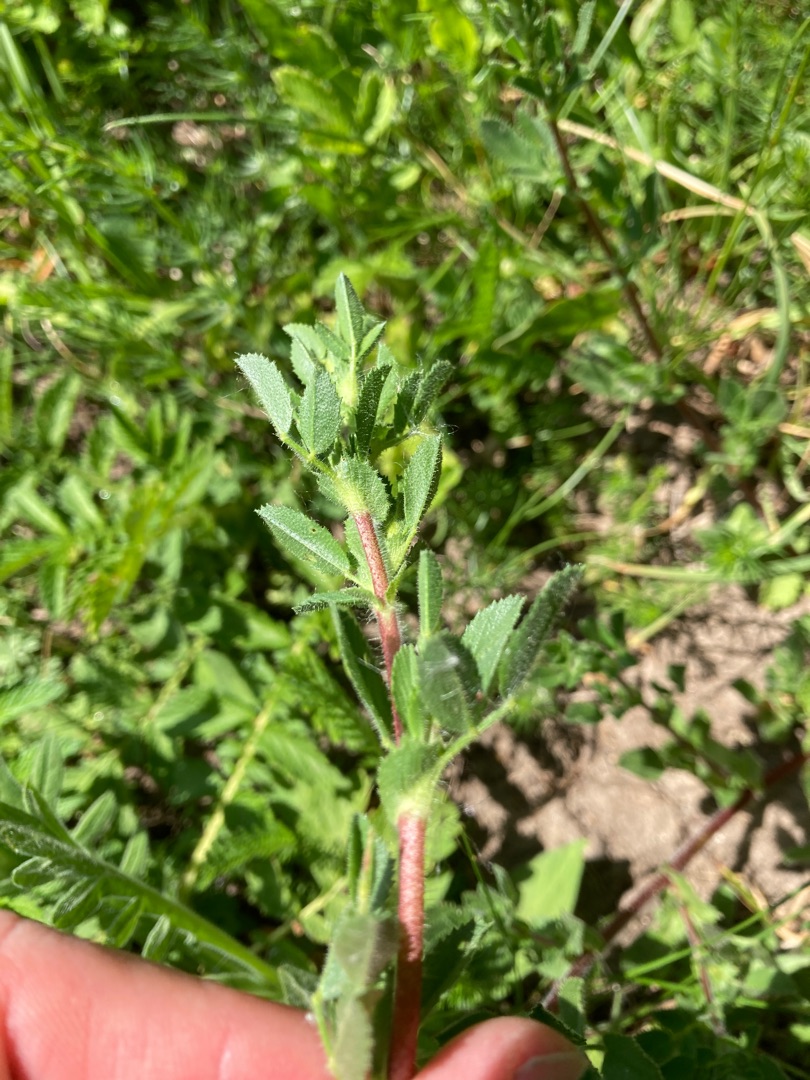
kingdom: Plantae
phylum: Tracheophyta
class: Magnoliopsida
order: Fabales
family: Fabaceae
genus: Ononis
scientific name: Ononis spinosa
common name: Krageklo
